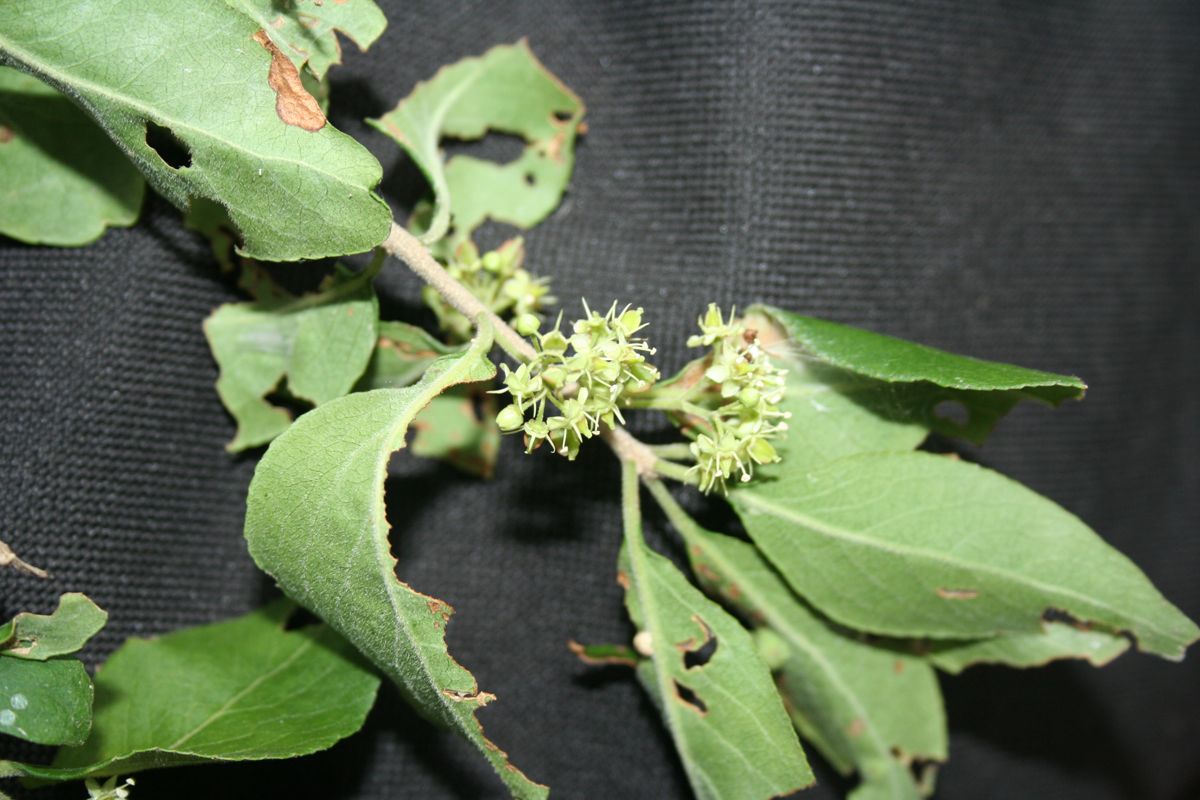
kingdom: Plantae
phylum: Tracheophyta
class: Magnoliopsida
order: Celastrales
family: Celastraceae
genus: Wimmeria
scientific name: Wimmeria cyclocarpa
